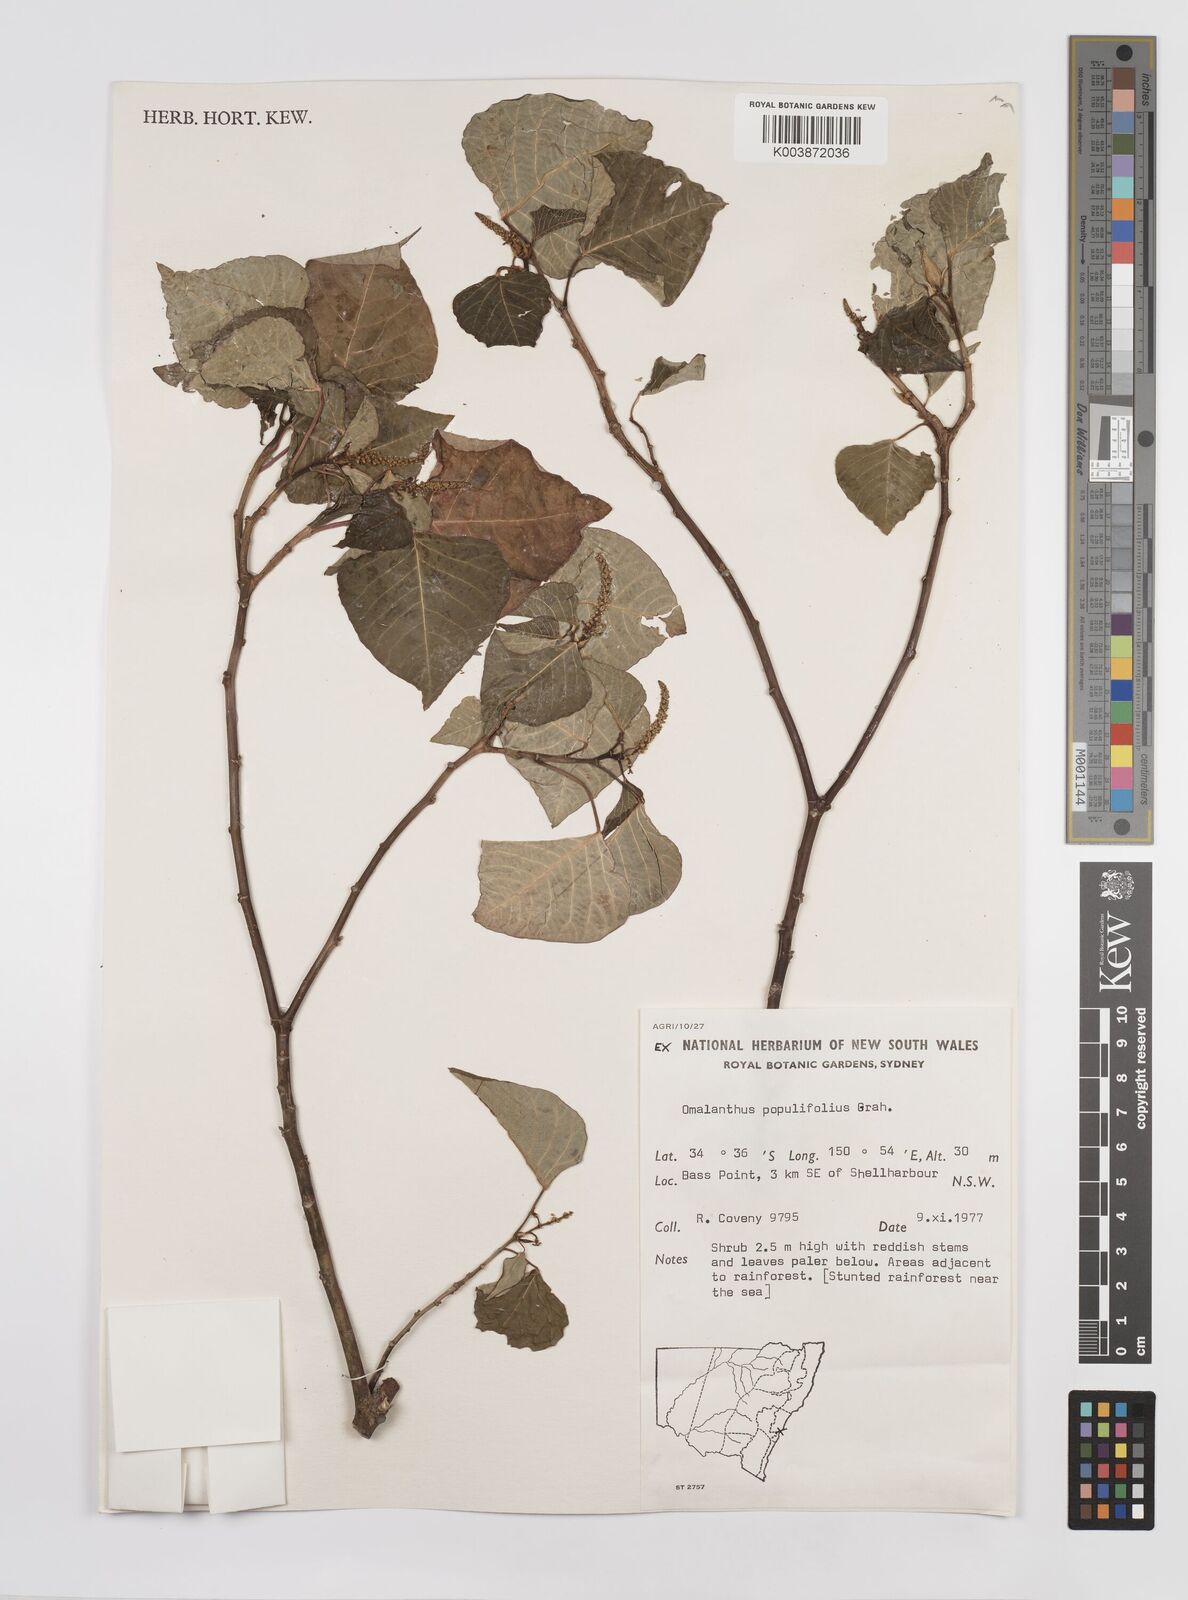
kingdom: Plantae
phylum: Tracheophyta
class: Magnoliopsida
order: Malpighiales
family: Euphorbiaceae
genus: Homalanthus
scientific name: Homalanthus populifolius
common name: Queensland poplar
